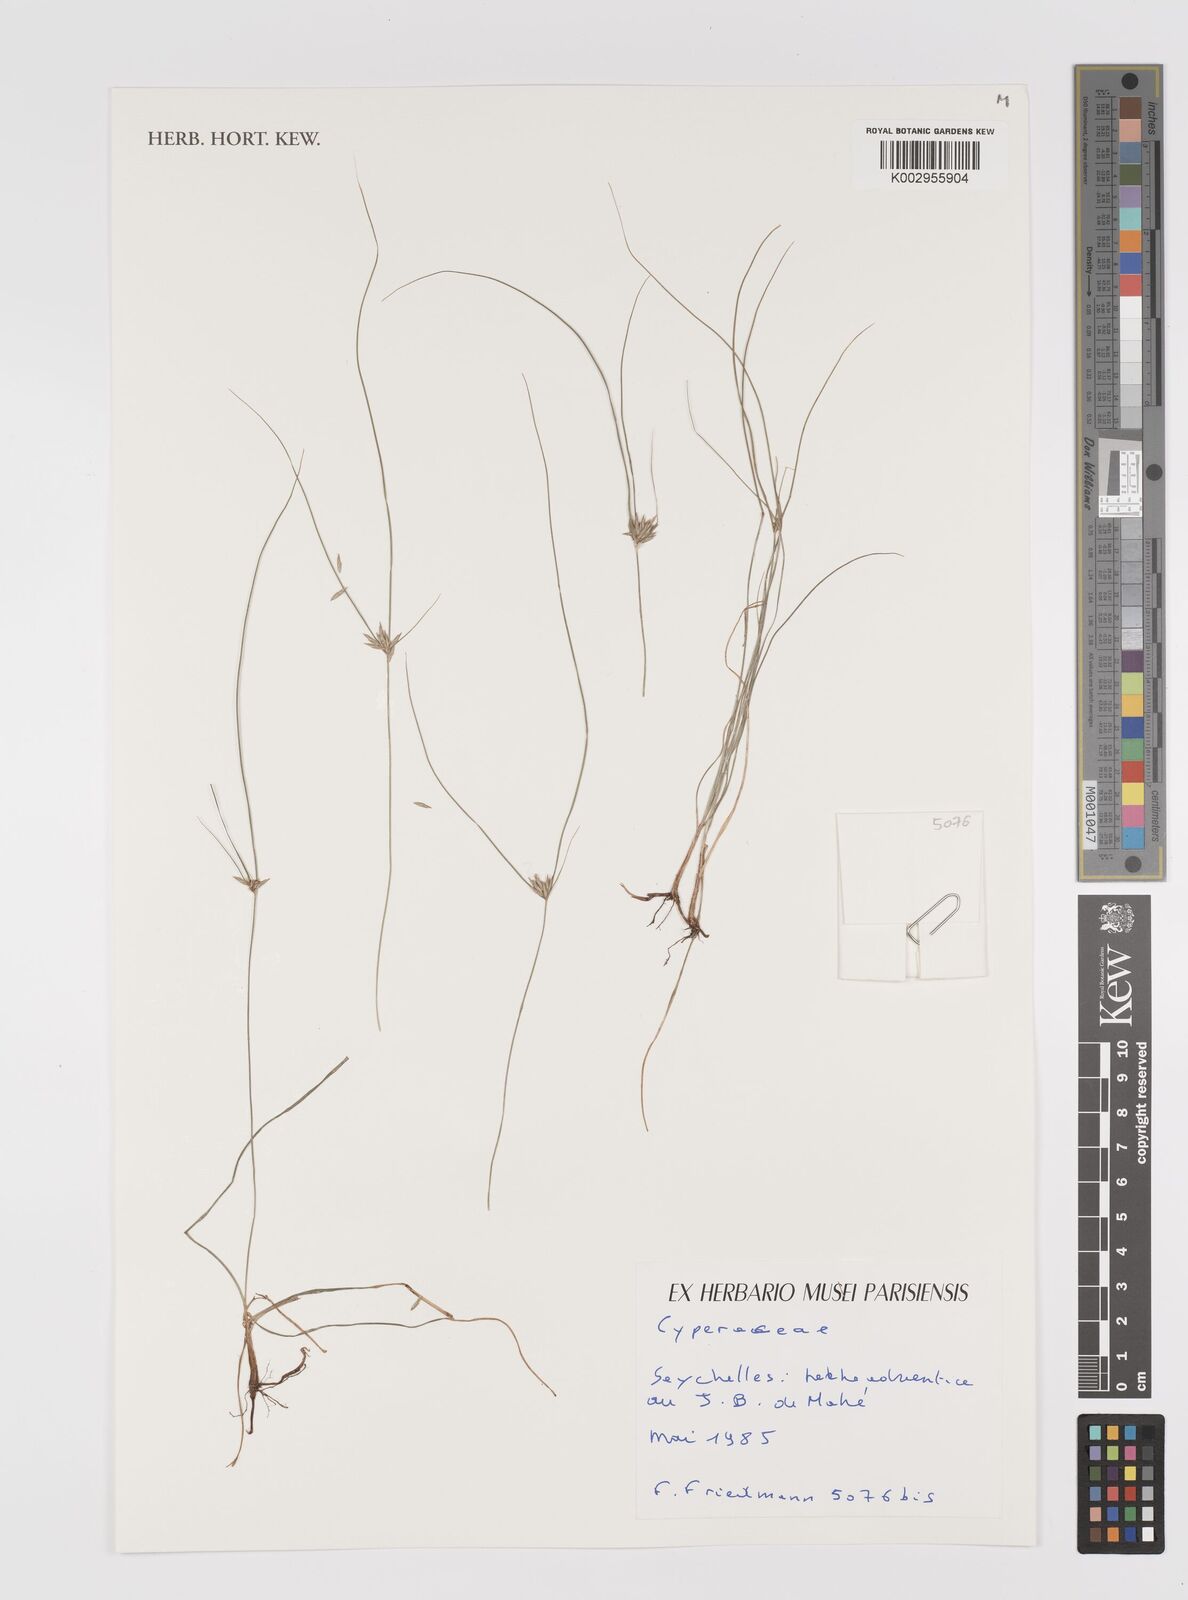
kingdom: Plantae
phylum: Tracheophyta
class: Liliopsida
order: Poales
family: Cyperaceae
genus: Cyperus
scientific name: Cyperus
